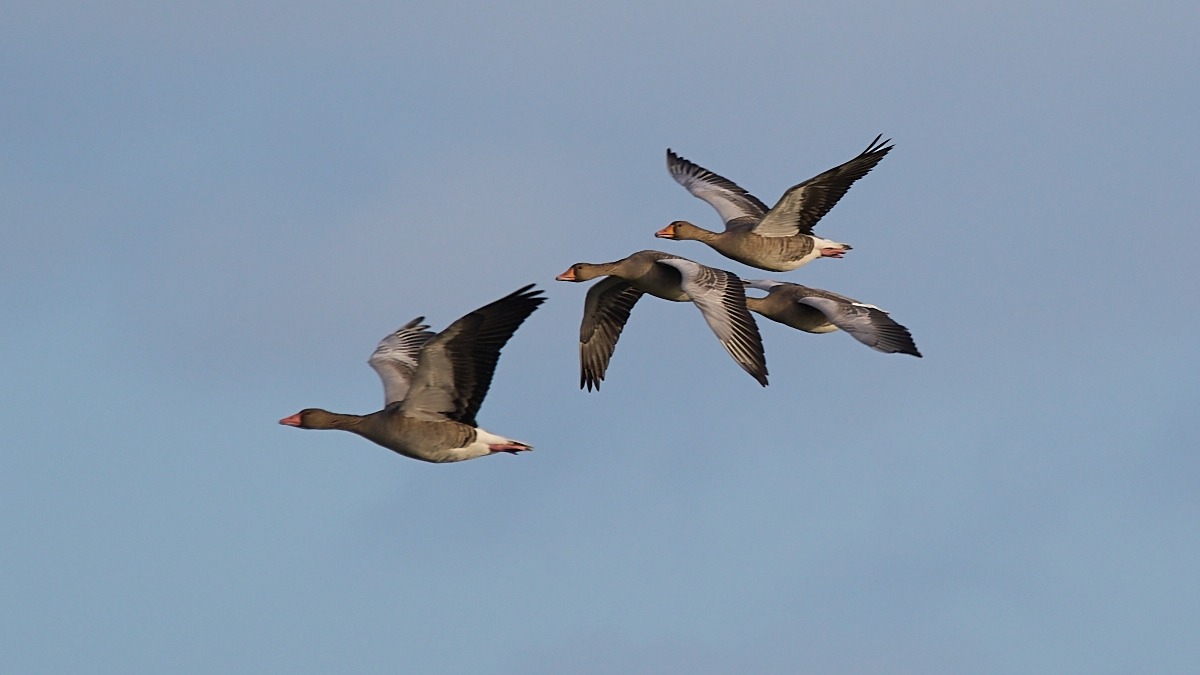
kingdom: Animalia
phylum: Chordata
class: Aves
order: Anseriformes
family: Anatidae
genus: Anser
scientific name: Anser anser
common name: Grågås
